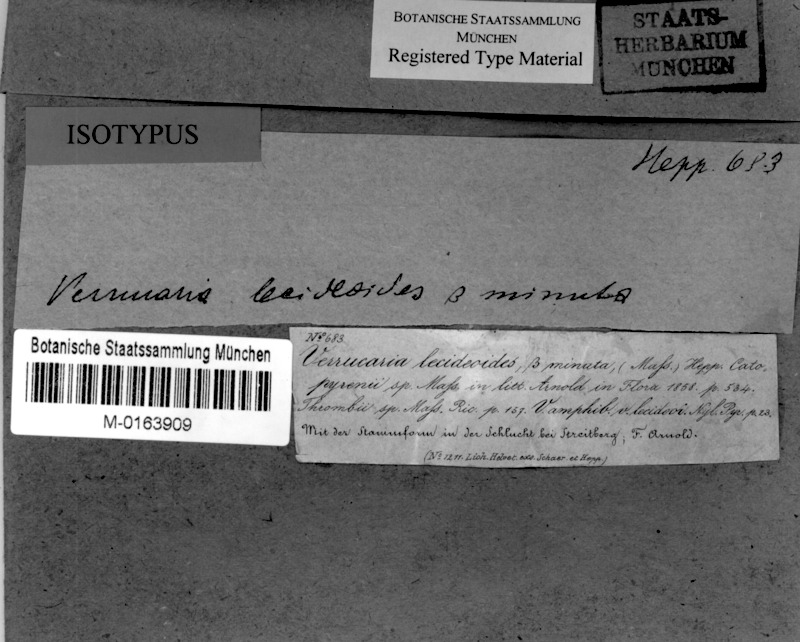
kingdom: Fungi
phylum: Ascomycota
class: Eurotiomycetes
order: Verrucariales
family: Verrucariaceae
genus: Verruculopsis
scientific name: Verruculopsis
